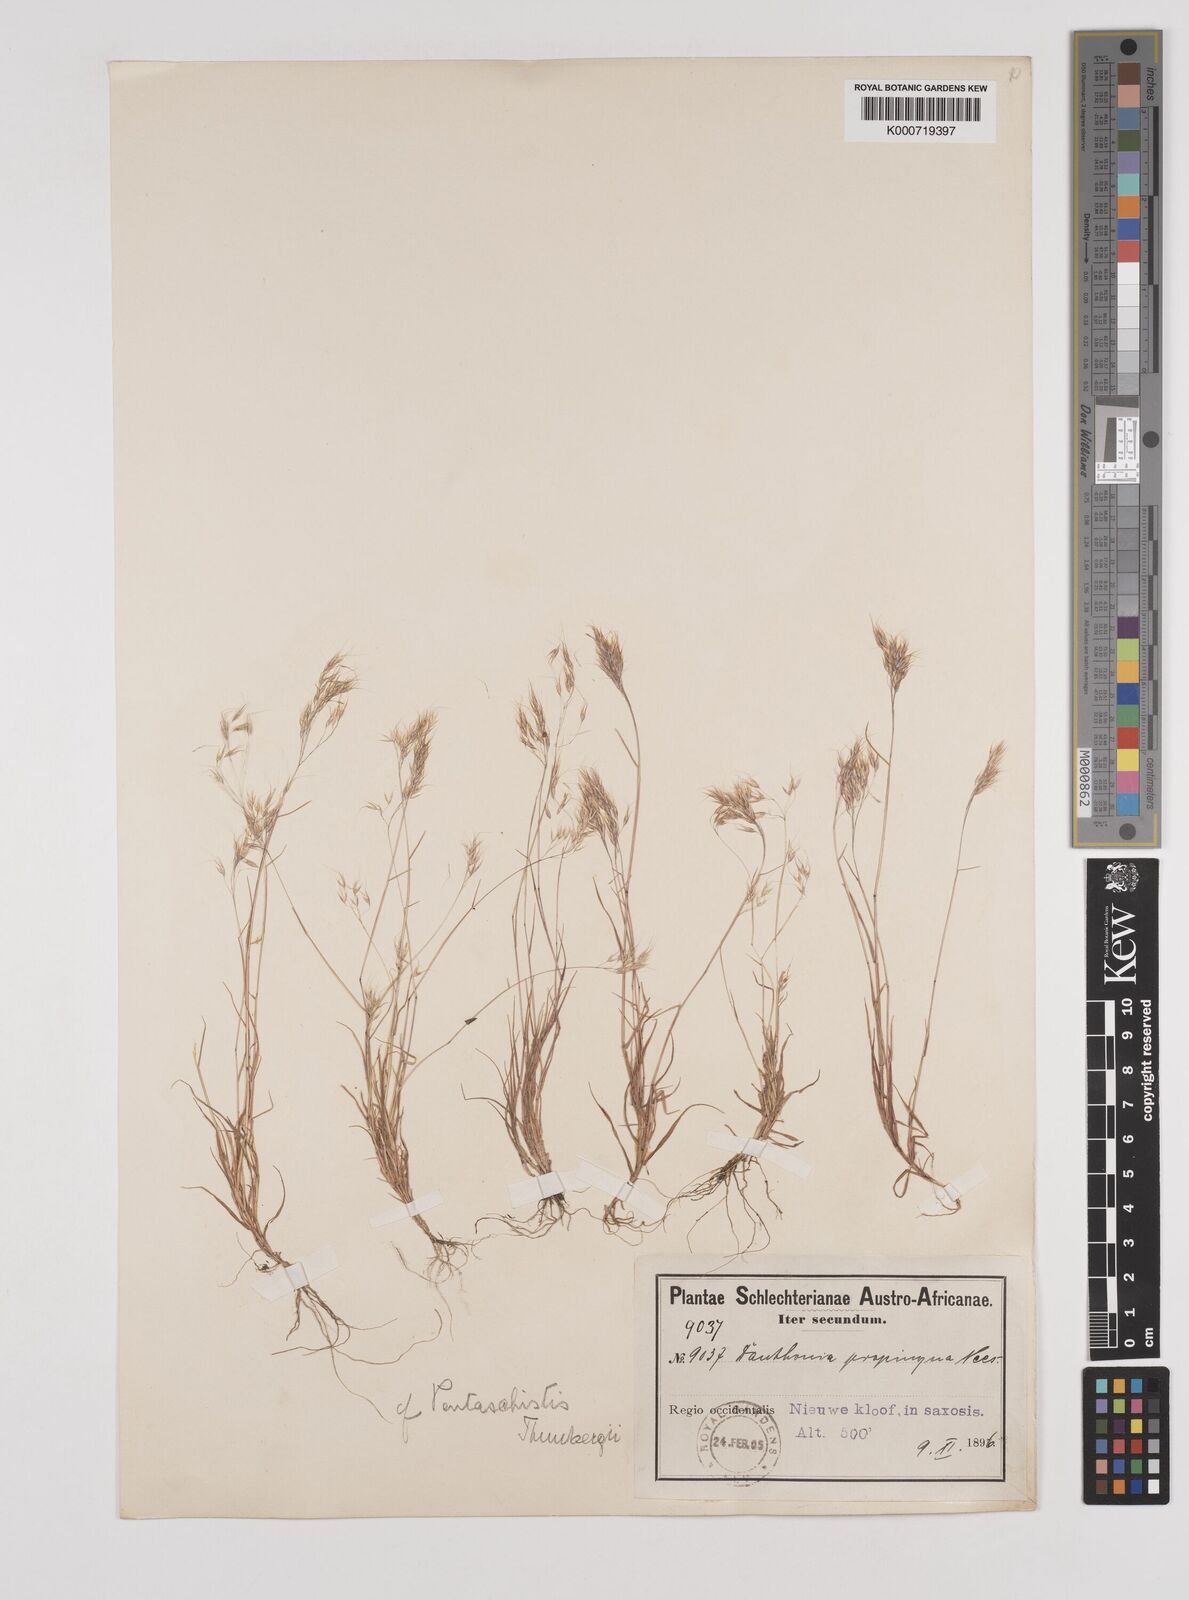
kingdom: Plantae
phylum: Tracheophyta
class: Liliopsida
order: Poales
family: Poaceae
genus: Pentameris
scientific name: Pentameris triseta
